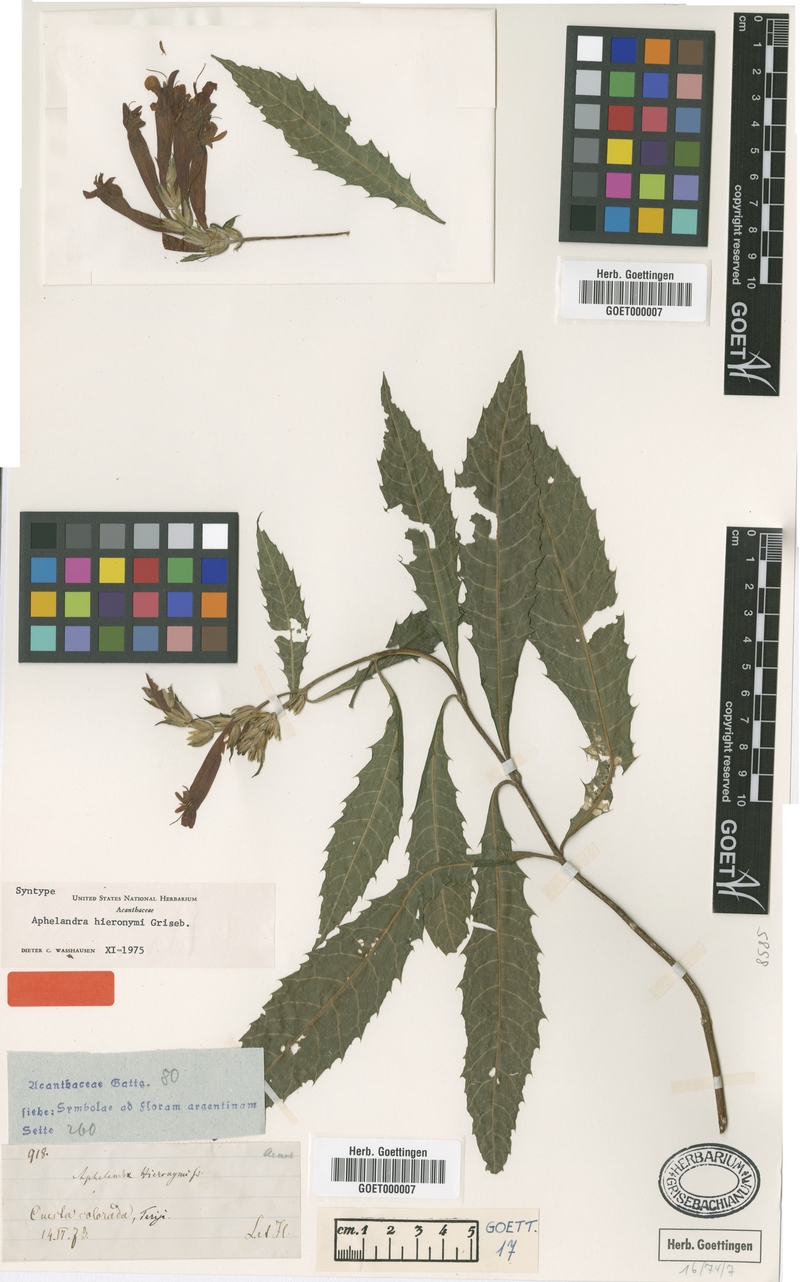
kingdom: Plantae
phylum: Tracheophyta
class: Magnoliopsida
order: Lamiales
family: Acanthaceae
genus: Aphelandra
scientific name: Aphelandra hieronymi
